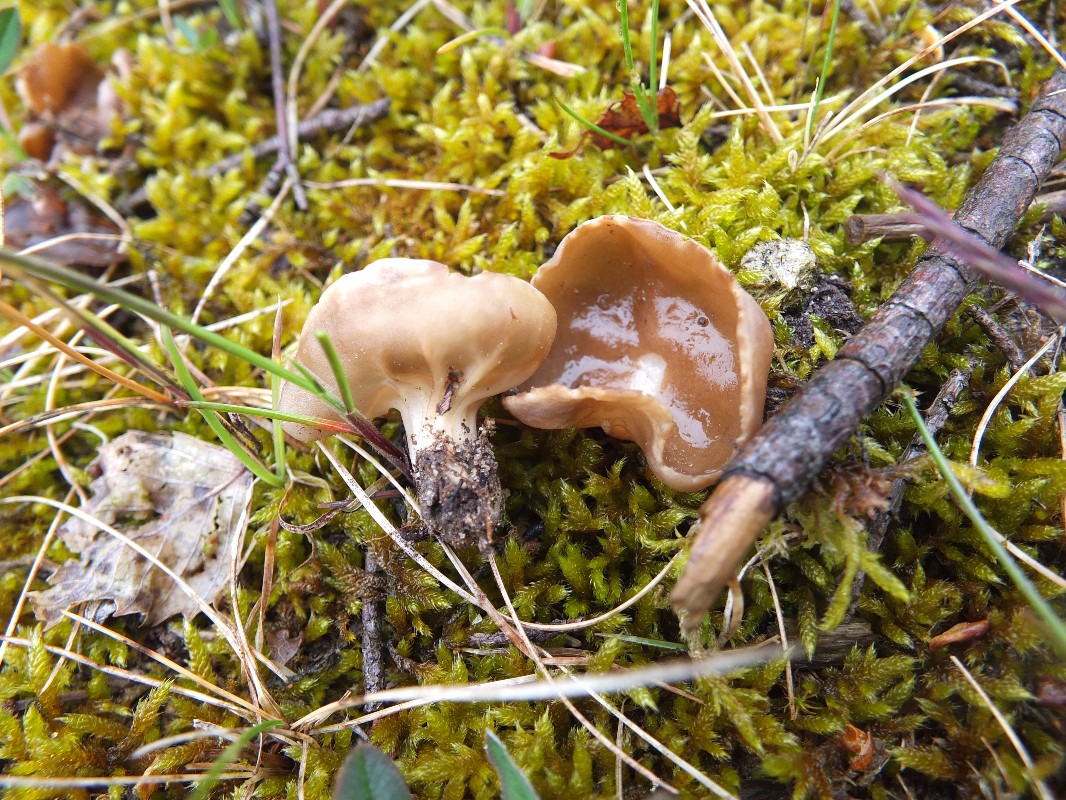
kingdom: Fungi
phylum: Ascomycota
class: Pezizomycetes
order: Pezizales
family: Helvellaceae
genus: Helvella
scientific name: Helvella acetabulum
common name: pokal-foldhat
